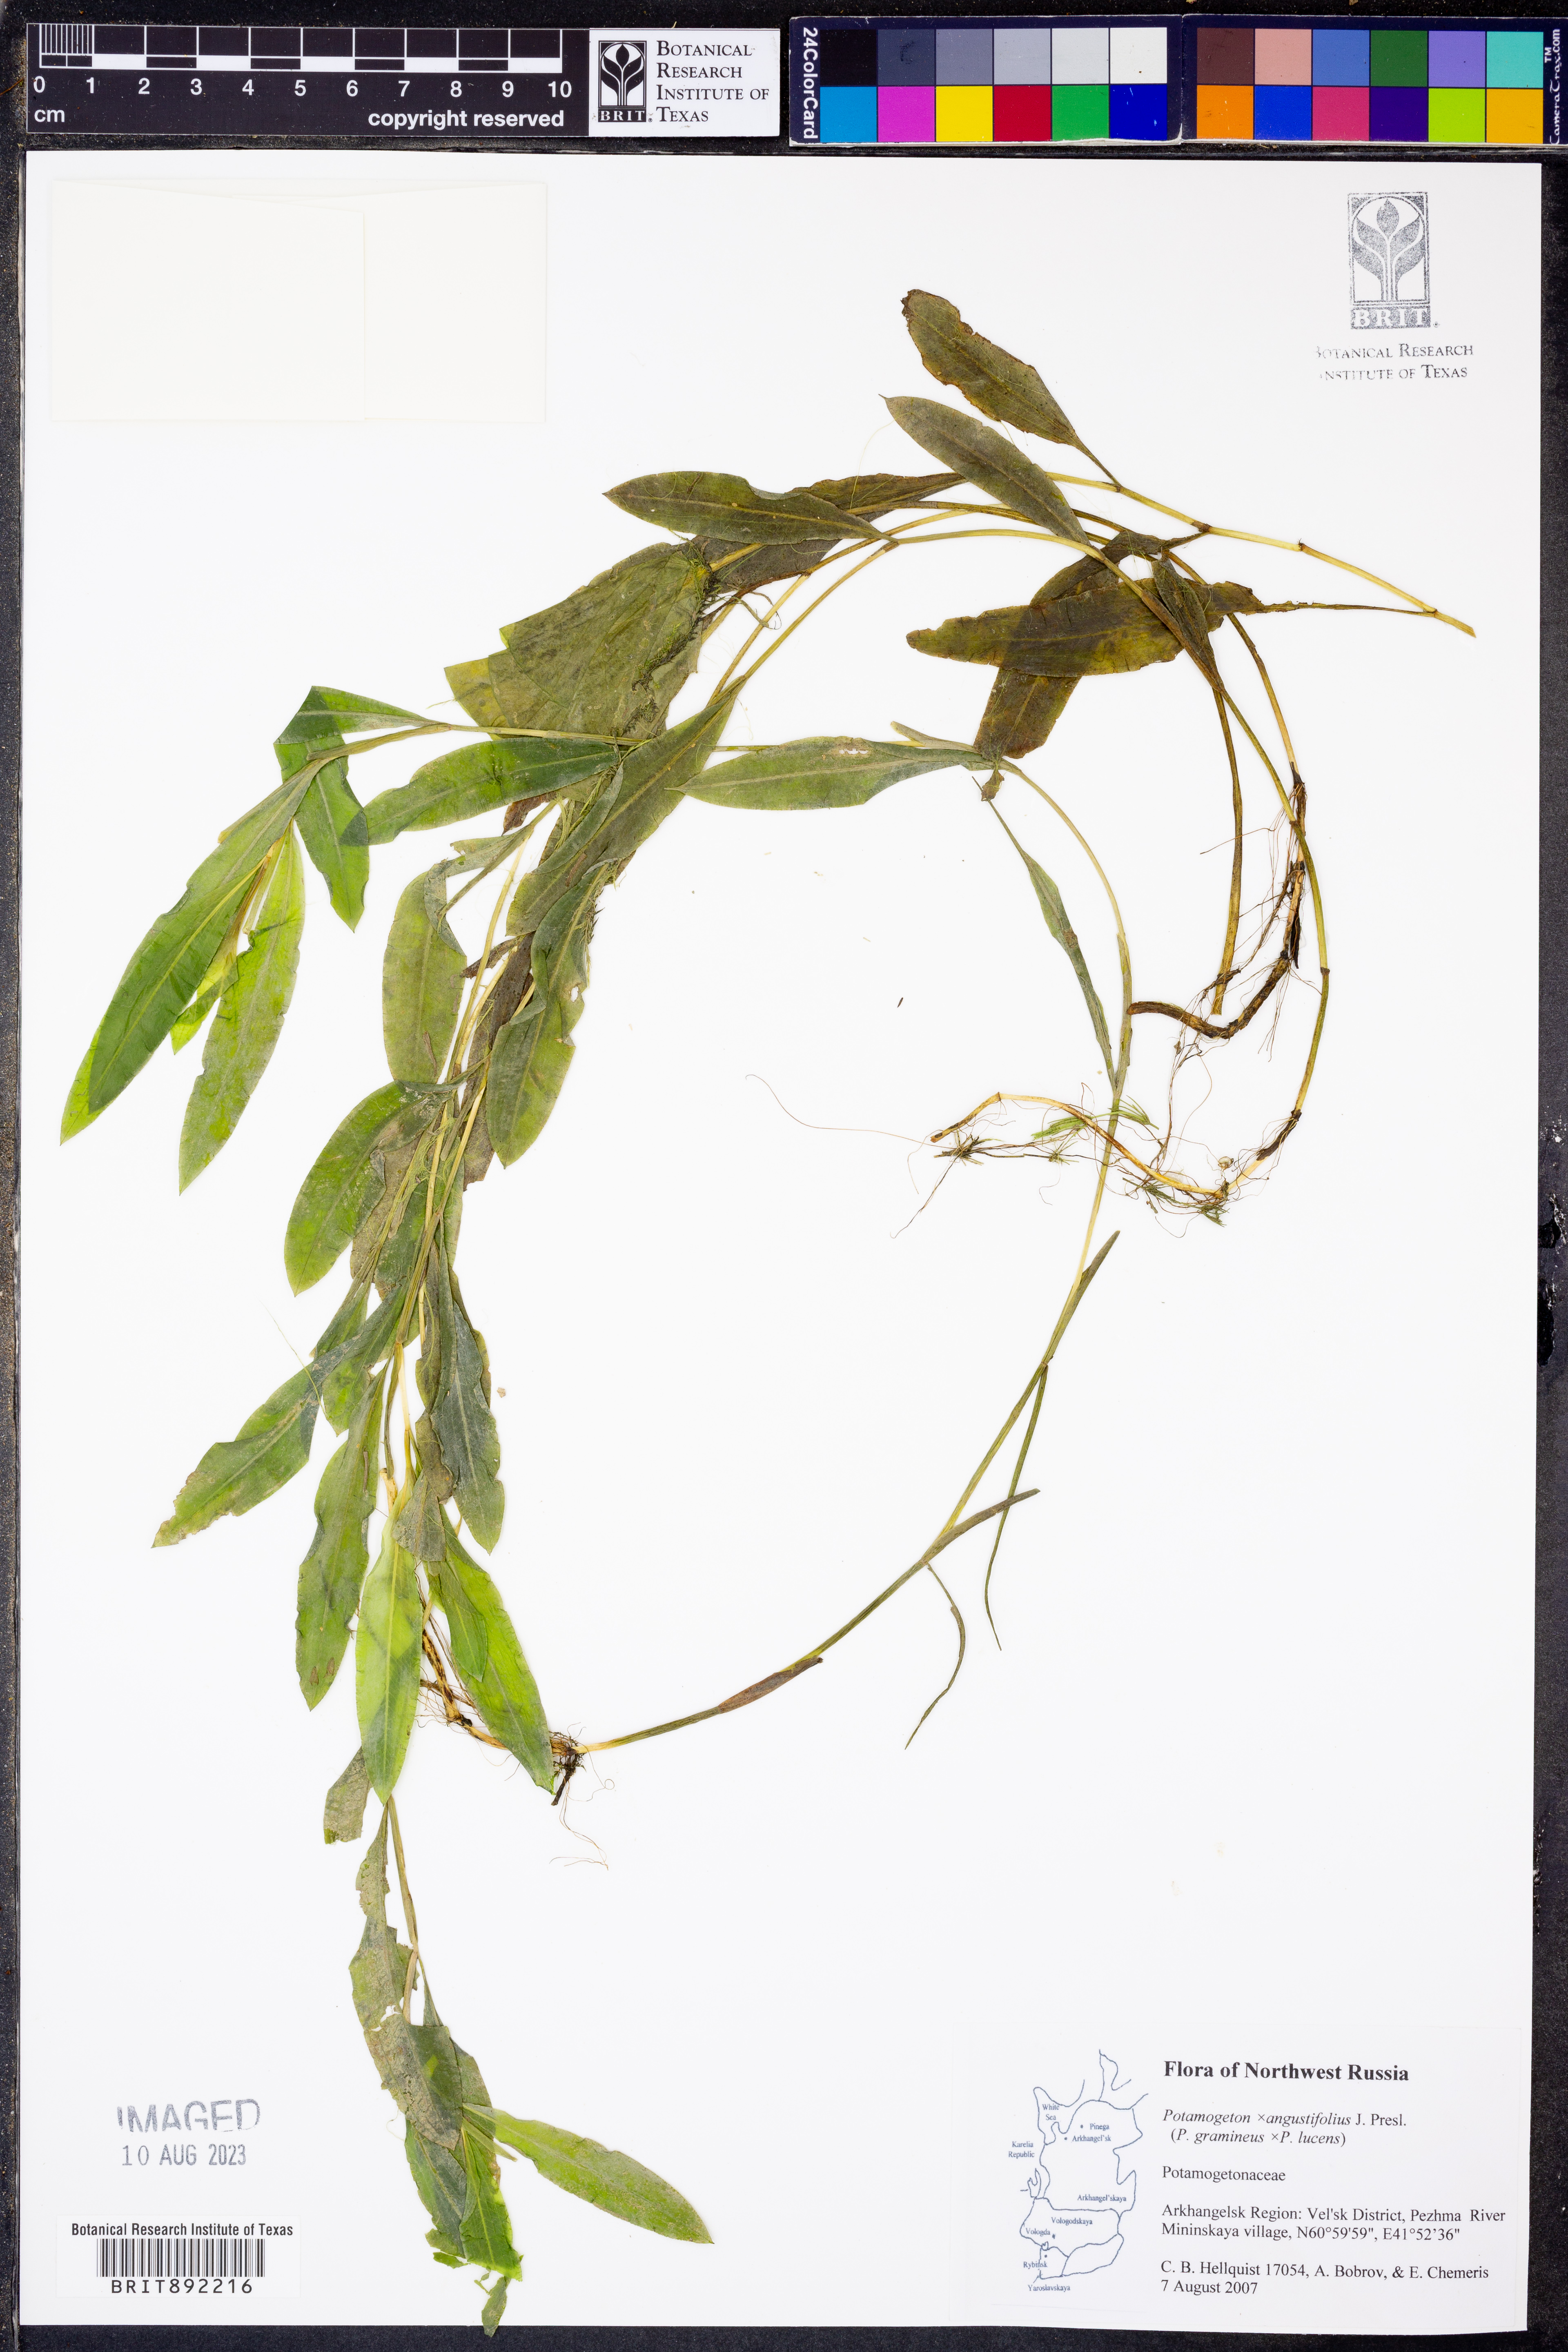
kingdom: Plantae
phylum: Tracheophyta
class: Liliopsida
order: Alismatales
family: Potamogetonaceae
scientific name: Potamogetonaceae
